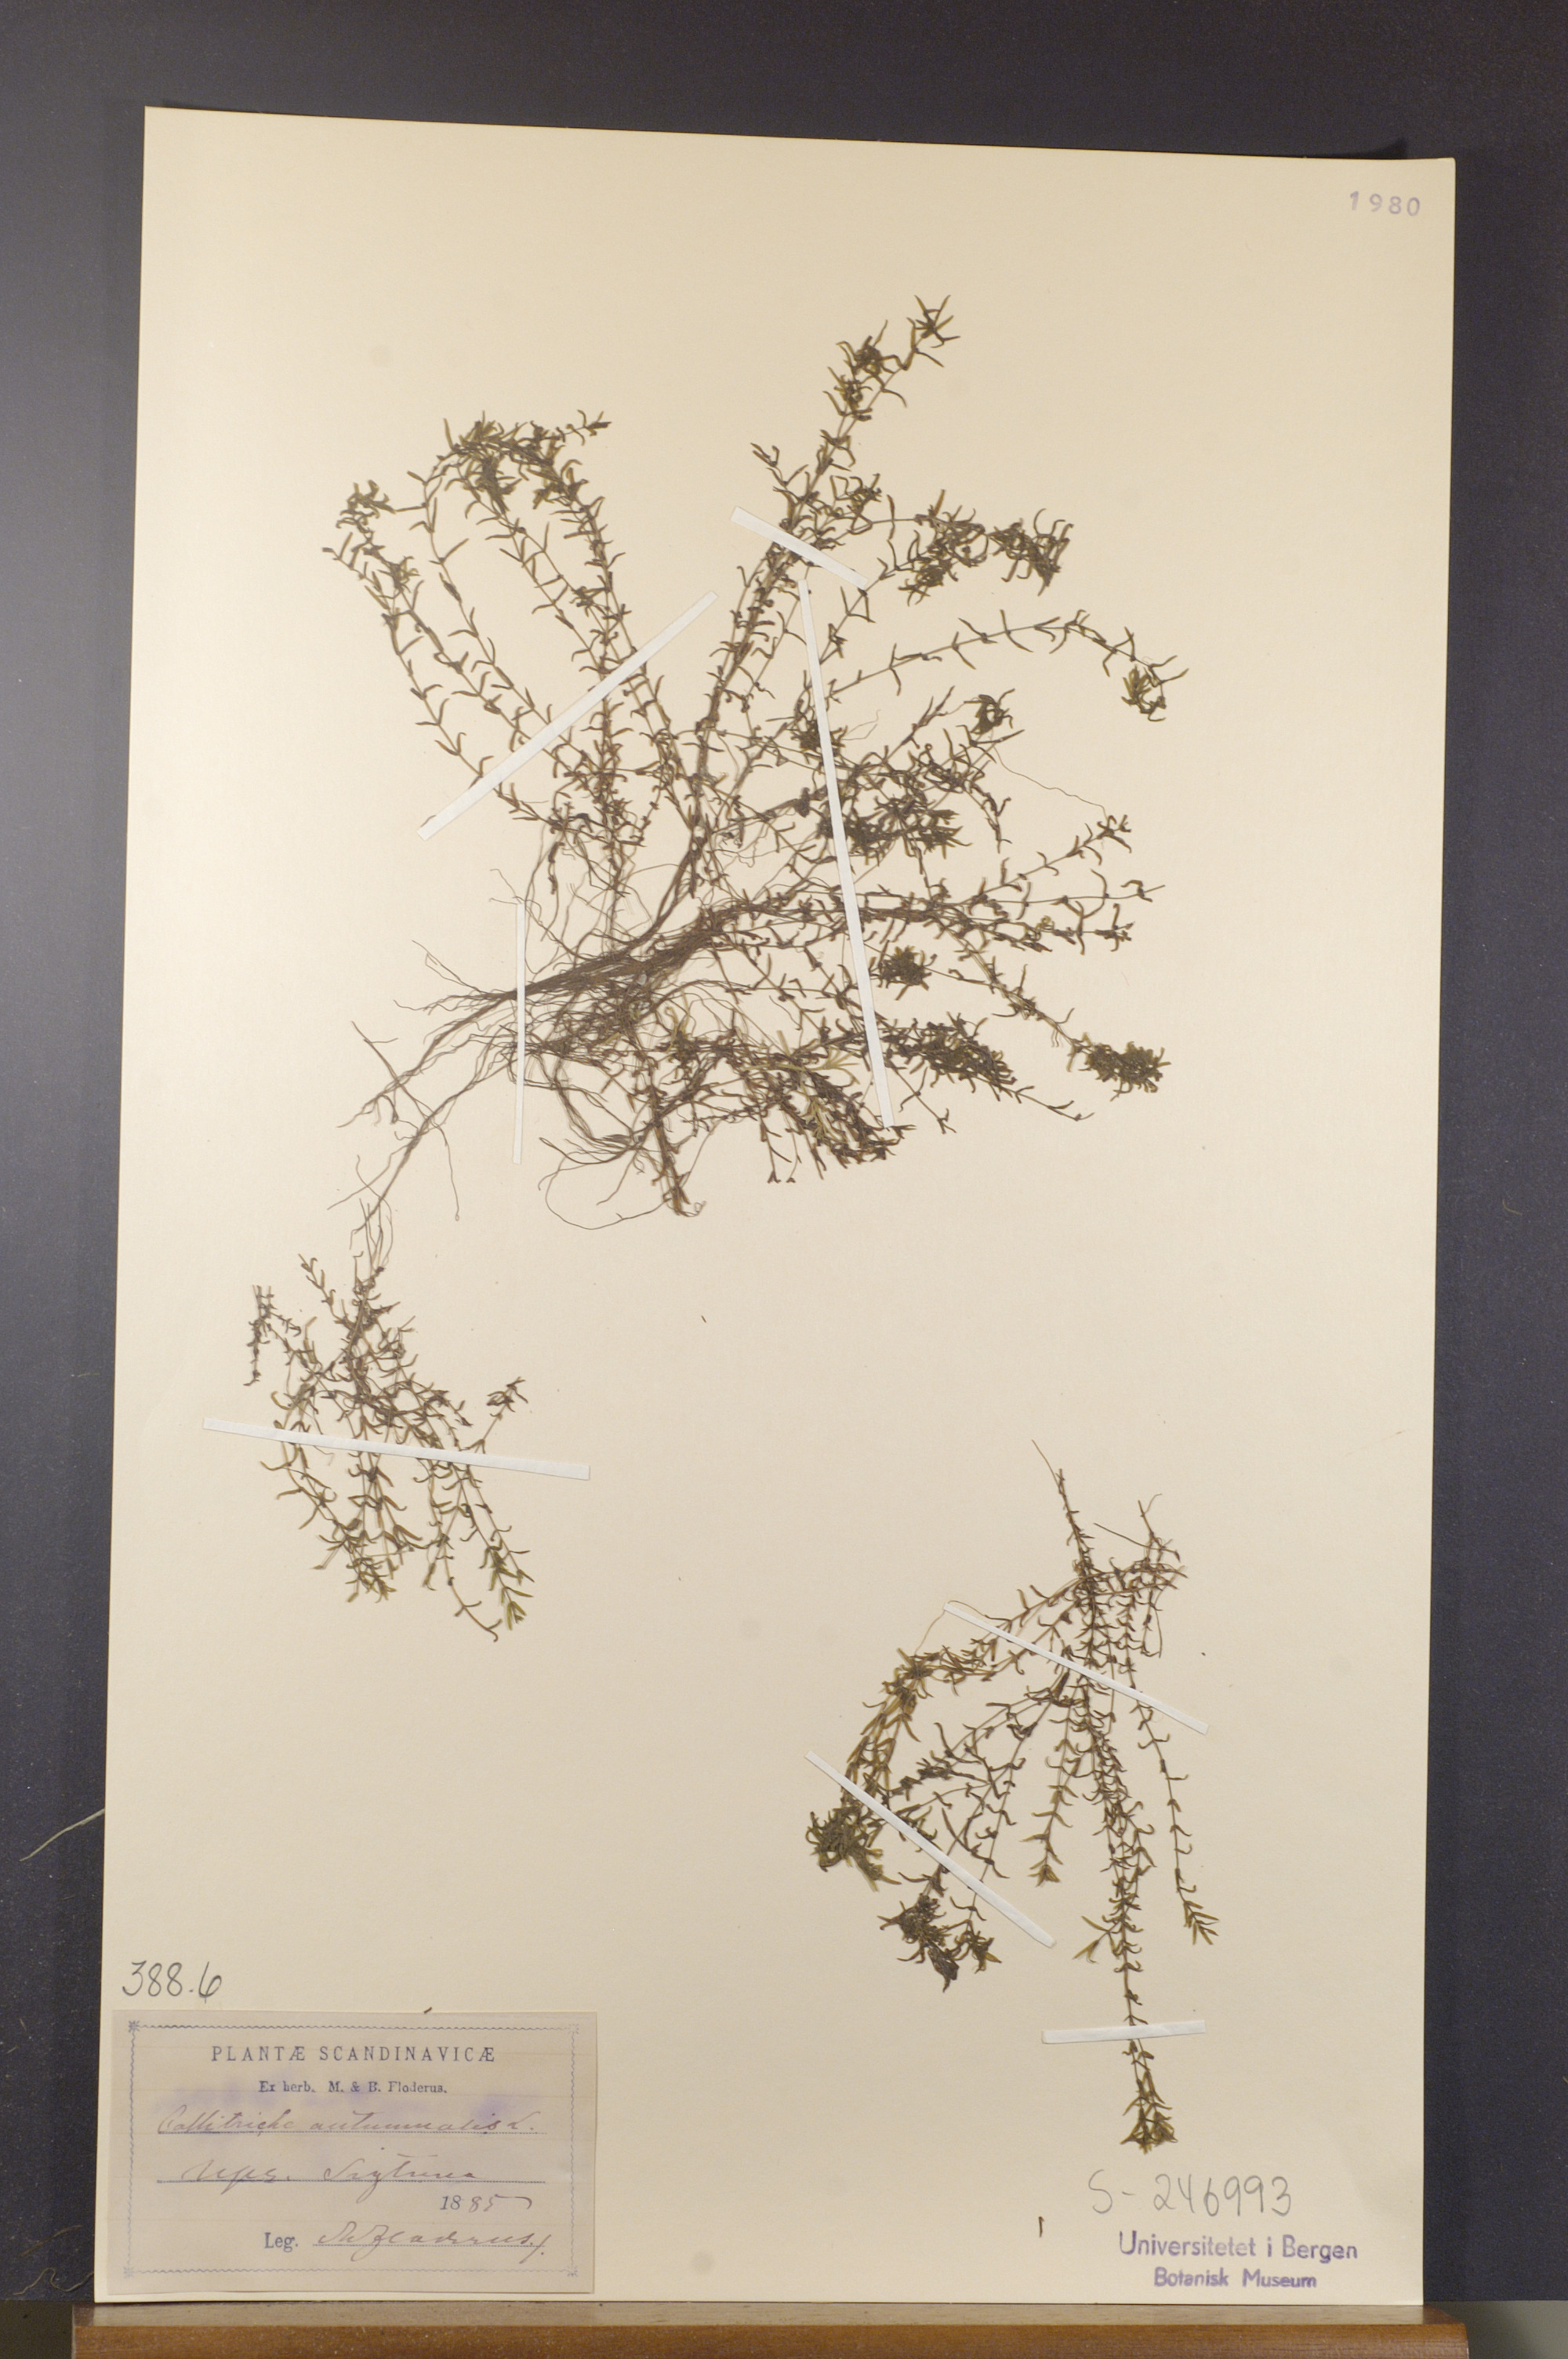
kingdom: Plantae
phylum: Tracheophyta
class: Magnoliopsida
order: Lamiales
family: Plantaginaceae
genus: Callitriche
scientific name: Callitriche hermaphroditica
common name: Autumnal water-starwort
